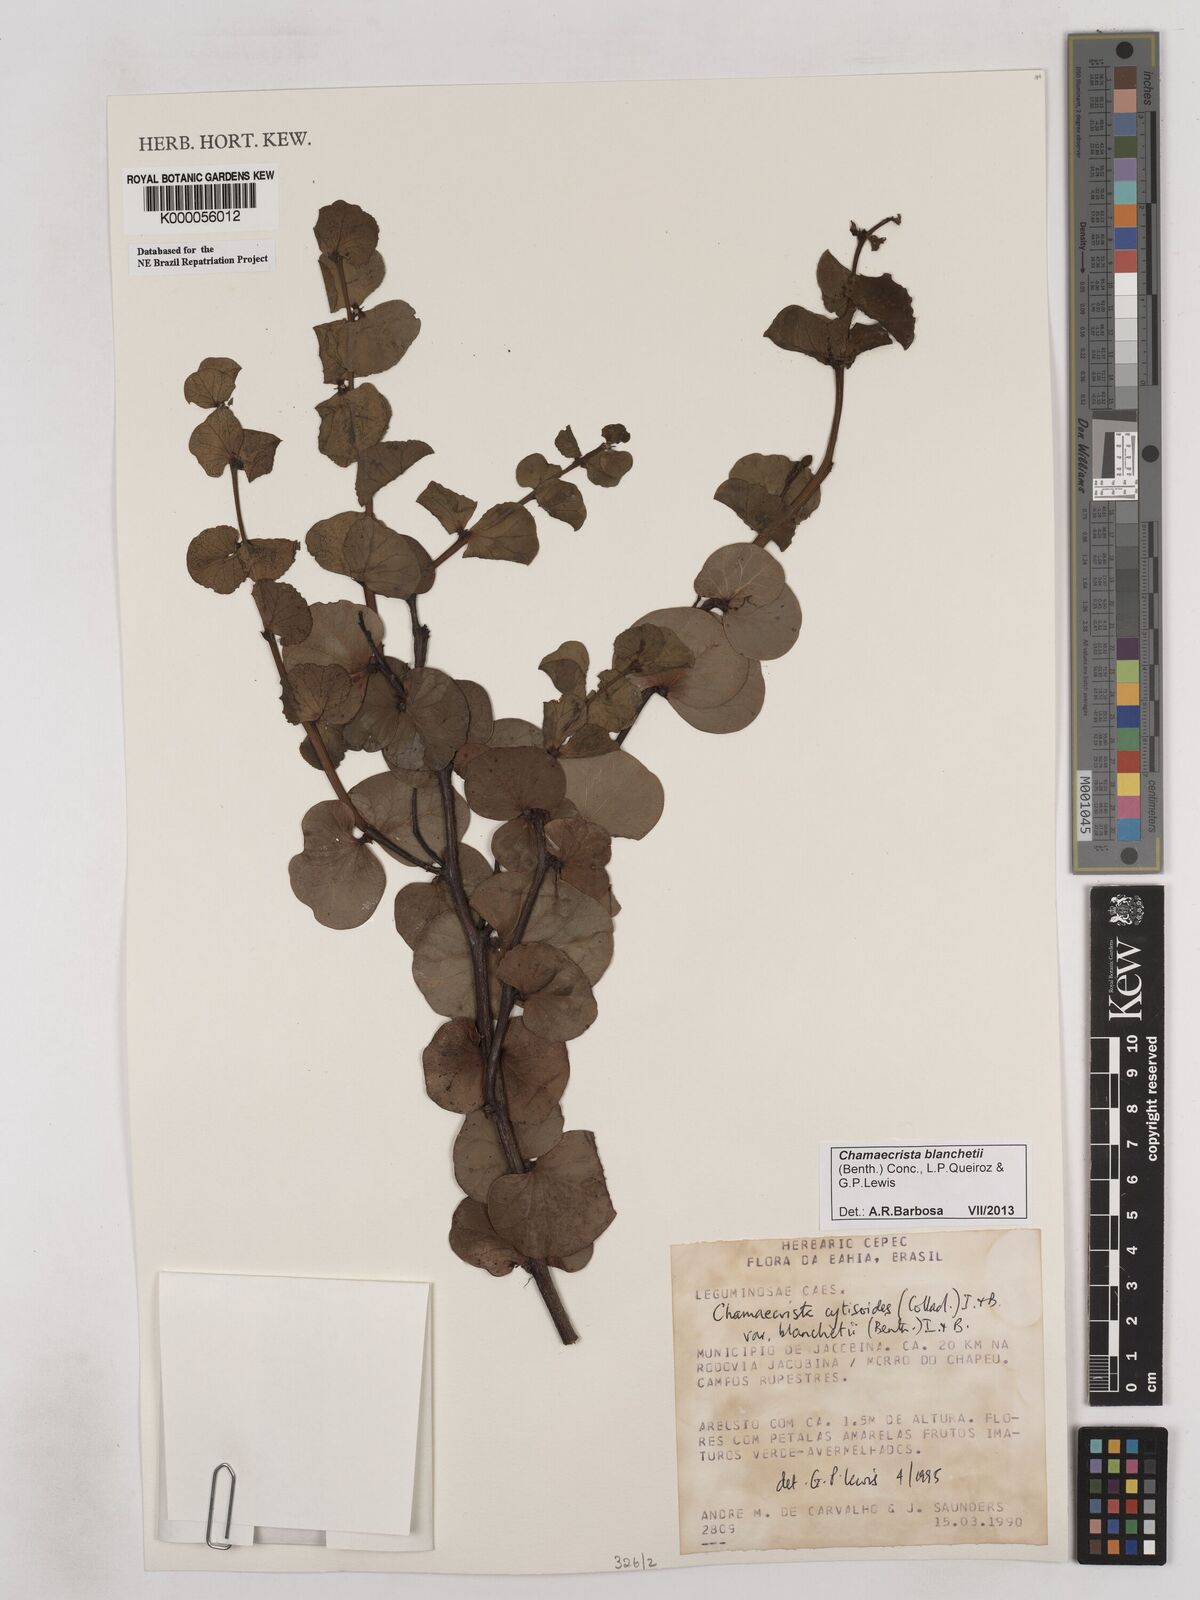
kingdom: Plantae
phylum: Tracheophyta
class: Magnoliopsida
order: Fabales
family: Fabaceae
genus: Chamaecrista
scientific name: Chamaecrista cytisoides
